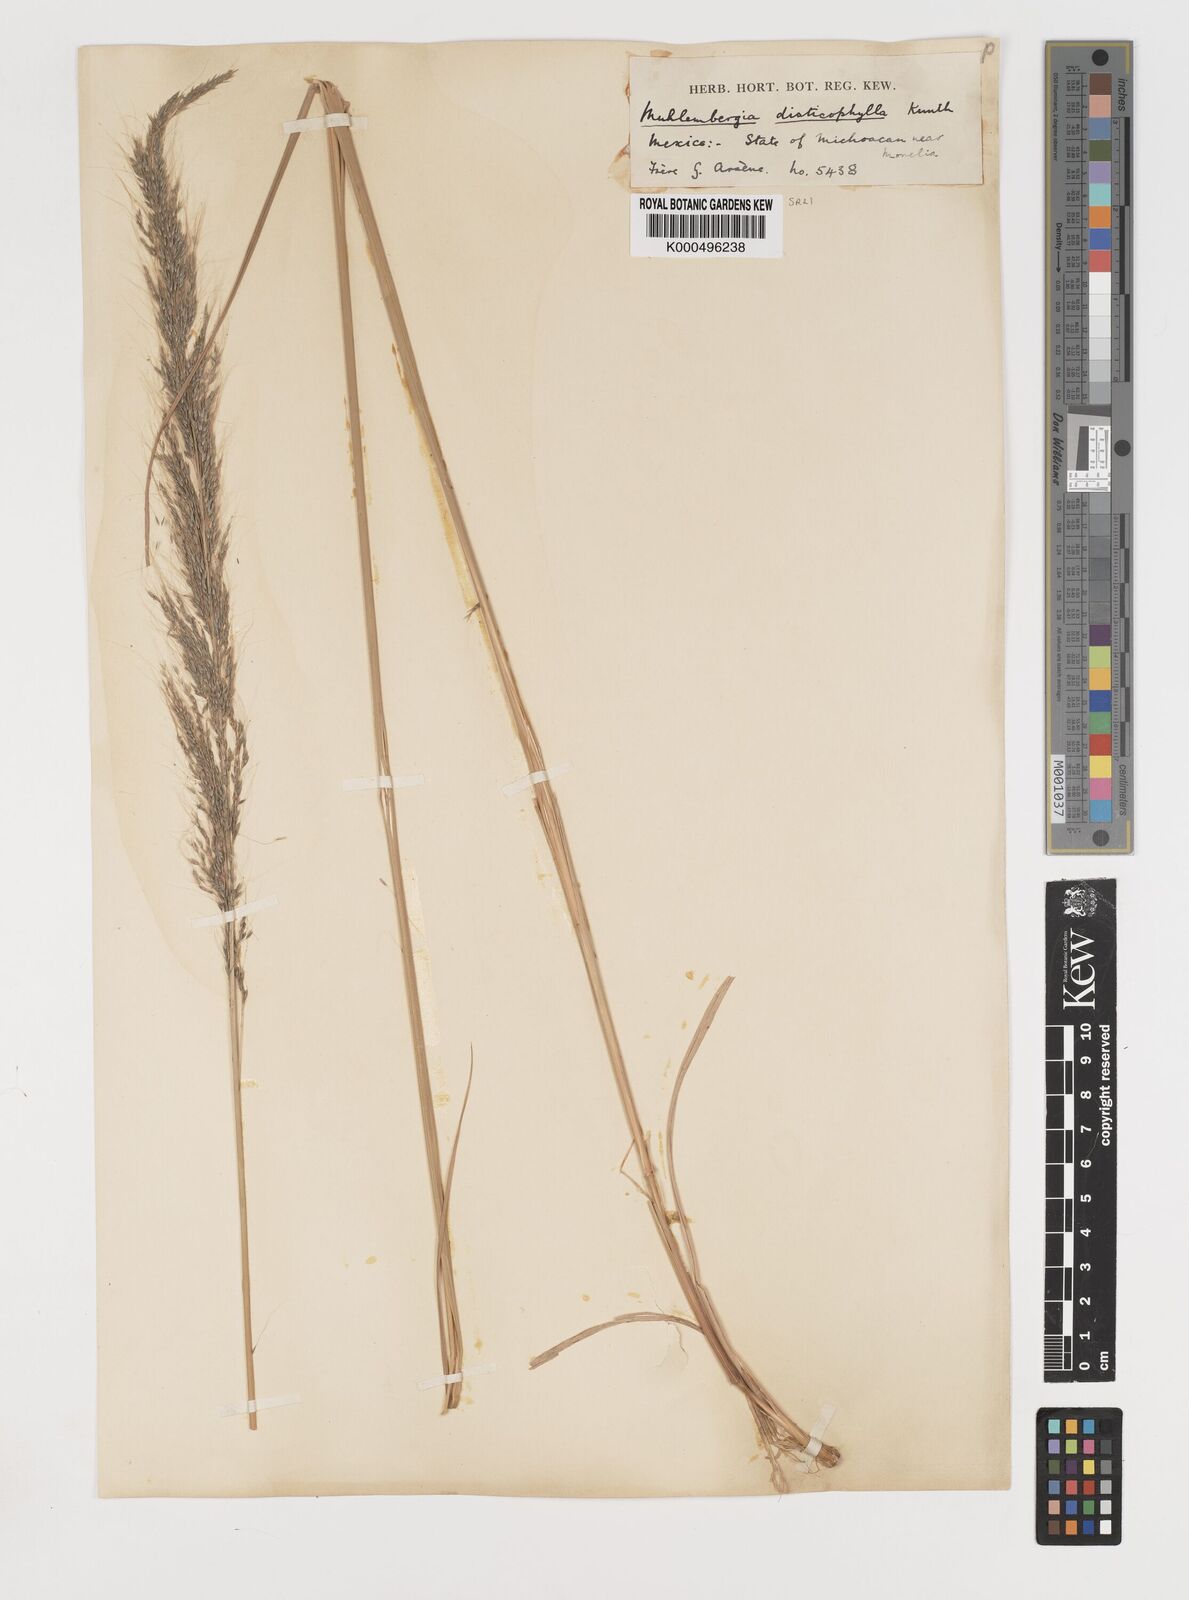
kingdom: Plantae
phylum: Tracheophyta
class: Liliopsida
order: Poales
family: Poaceae
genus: Muhlenbergia
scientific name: Muhlenbergia
